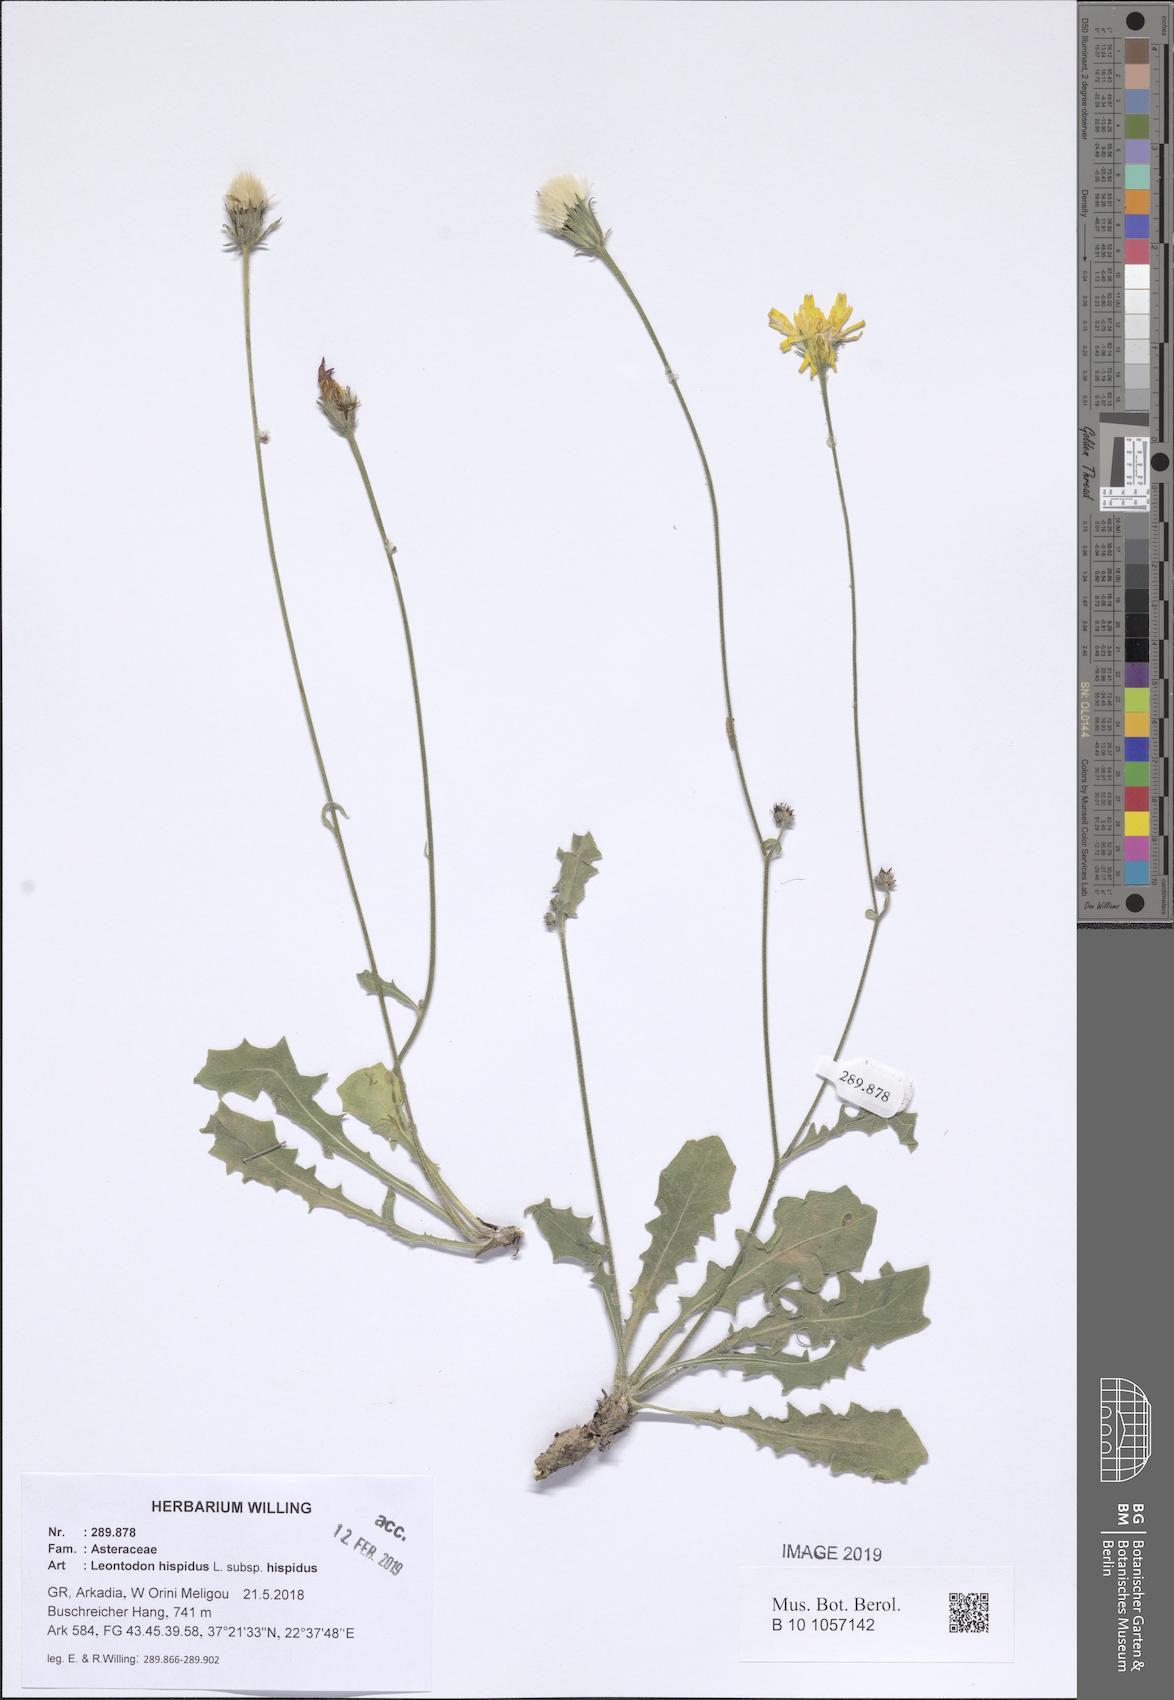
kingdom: Plantae
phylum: Tracheophyta
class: Magnoliopsida
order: Asterales
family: Asteraceae
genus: Leontodon
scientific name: Leontodon hispidus
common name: Rough hawkbit
